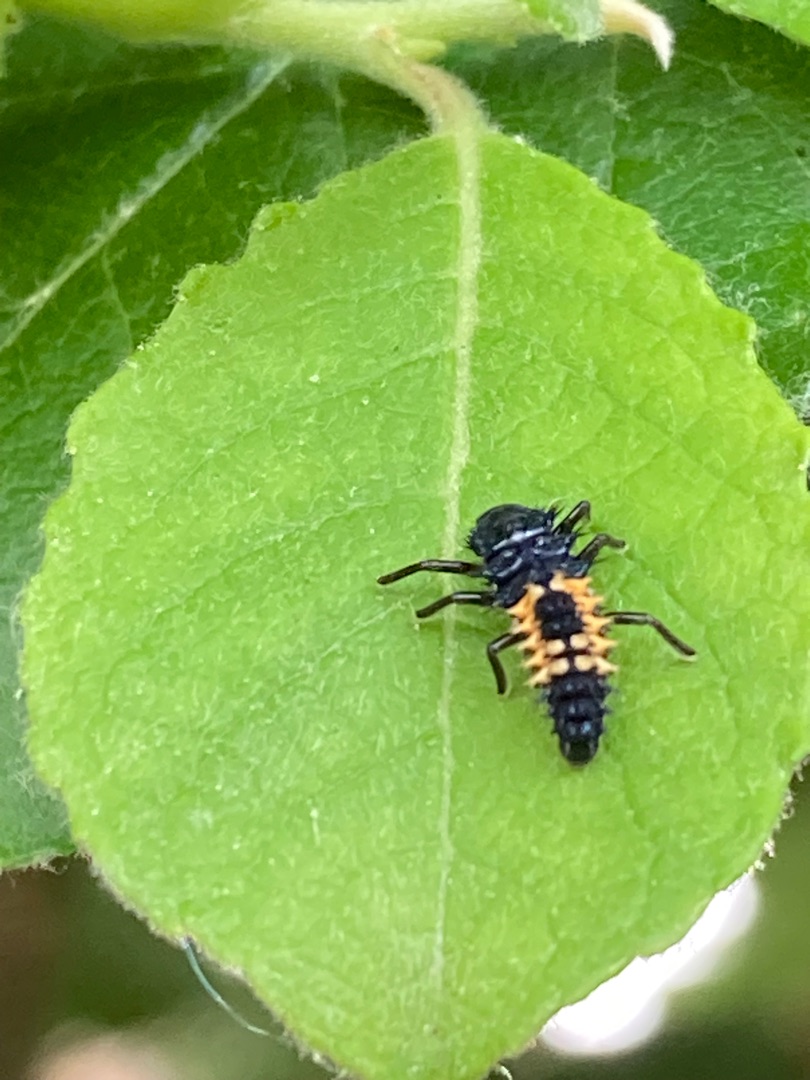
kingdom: Animalia
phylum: Arthropoda
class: Insecta
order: Coleoptera
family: Coccinellidae
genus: Harmonia
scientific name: Harmonia axyridis
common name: Harlekinmariehøne
